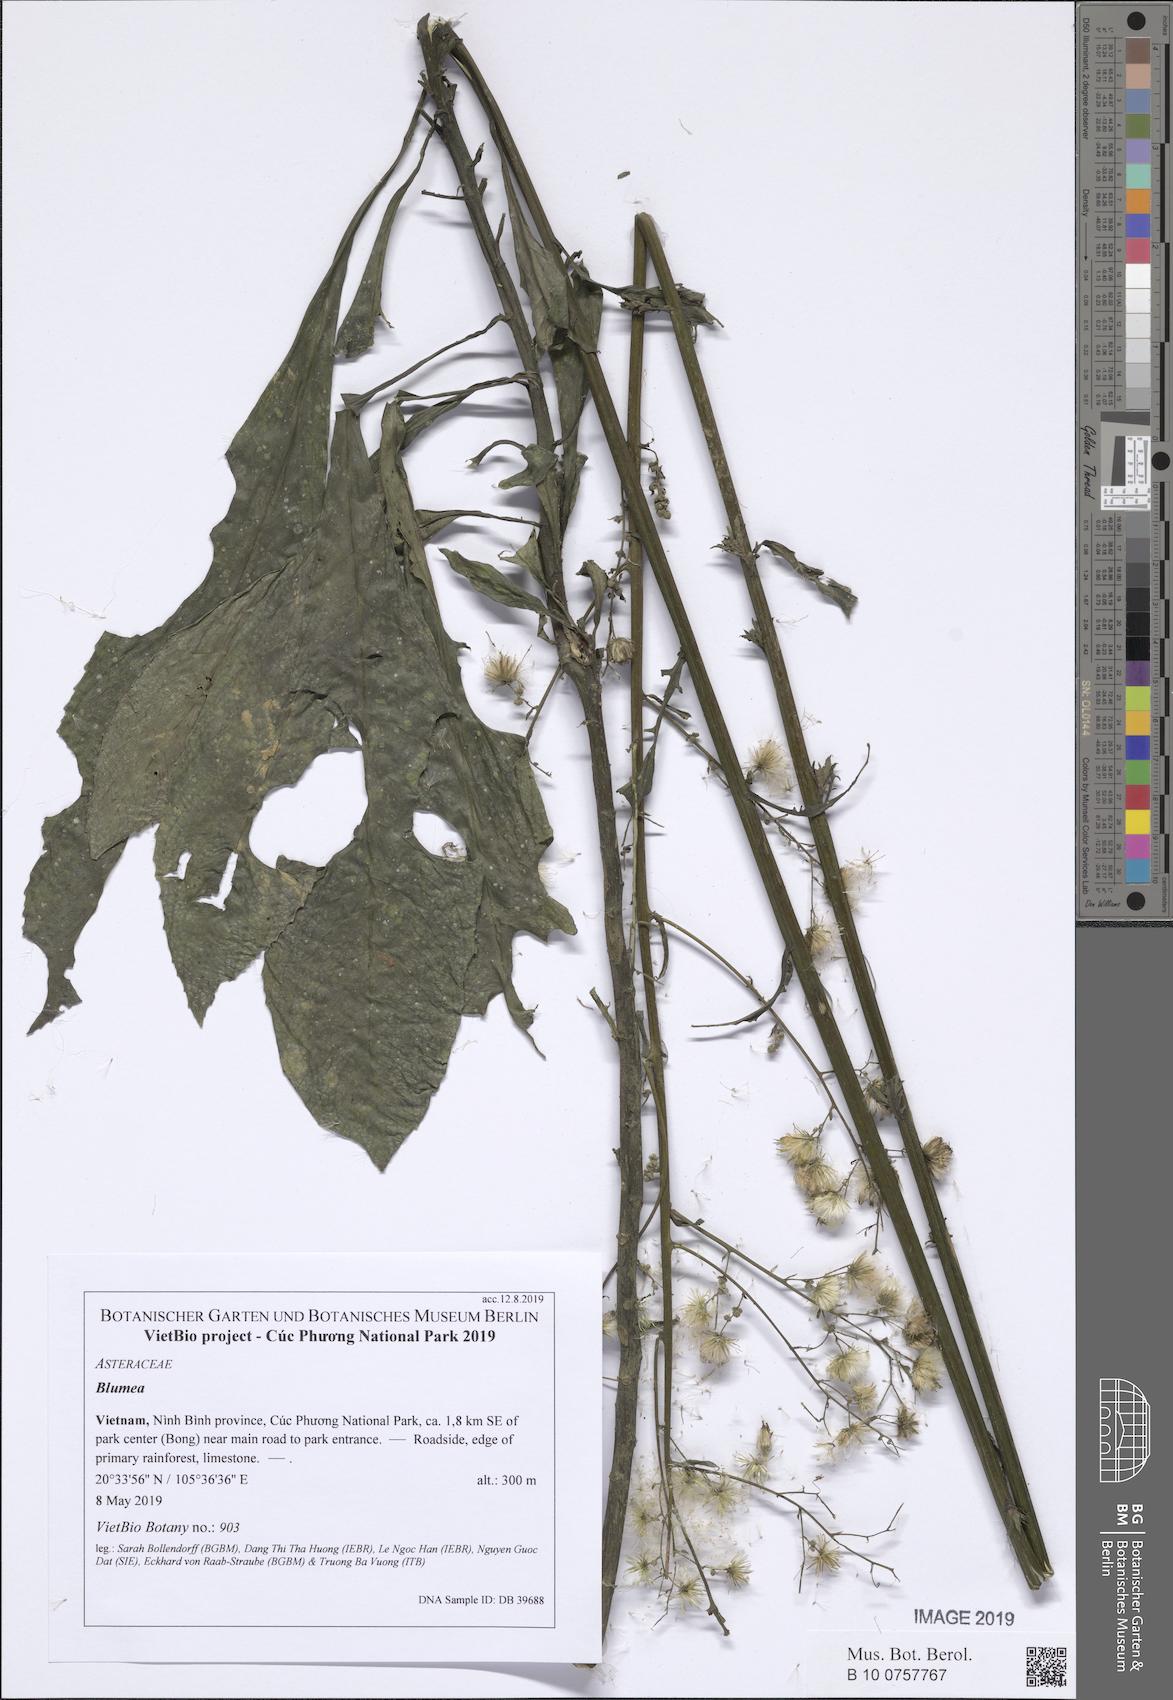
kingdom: Plantae
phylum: Tracheophyta
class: Magnoliopsida
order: Asterales
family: Asteraceae
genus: Blumea
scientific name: Blumea
